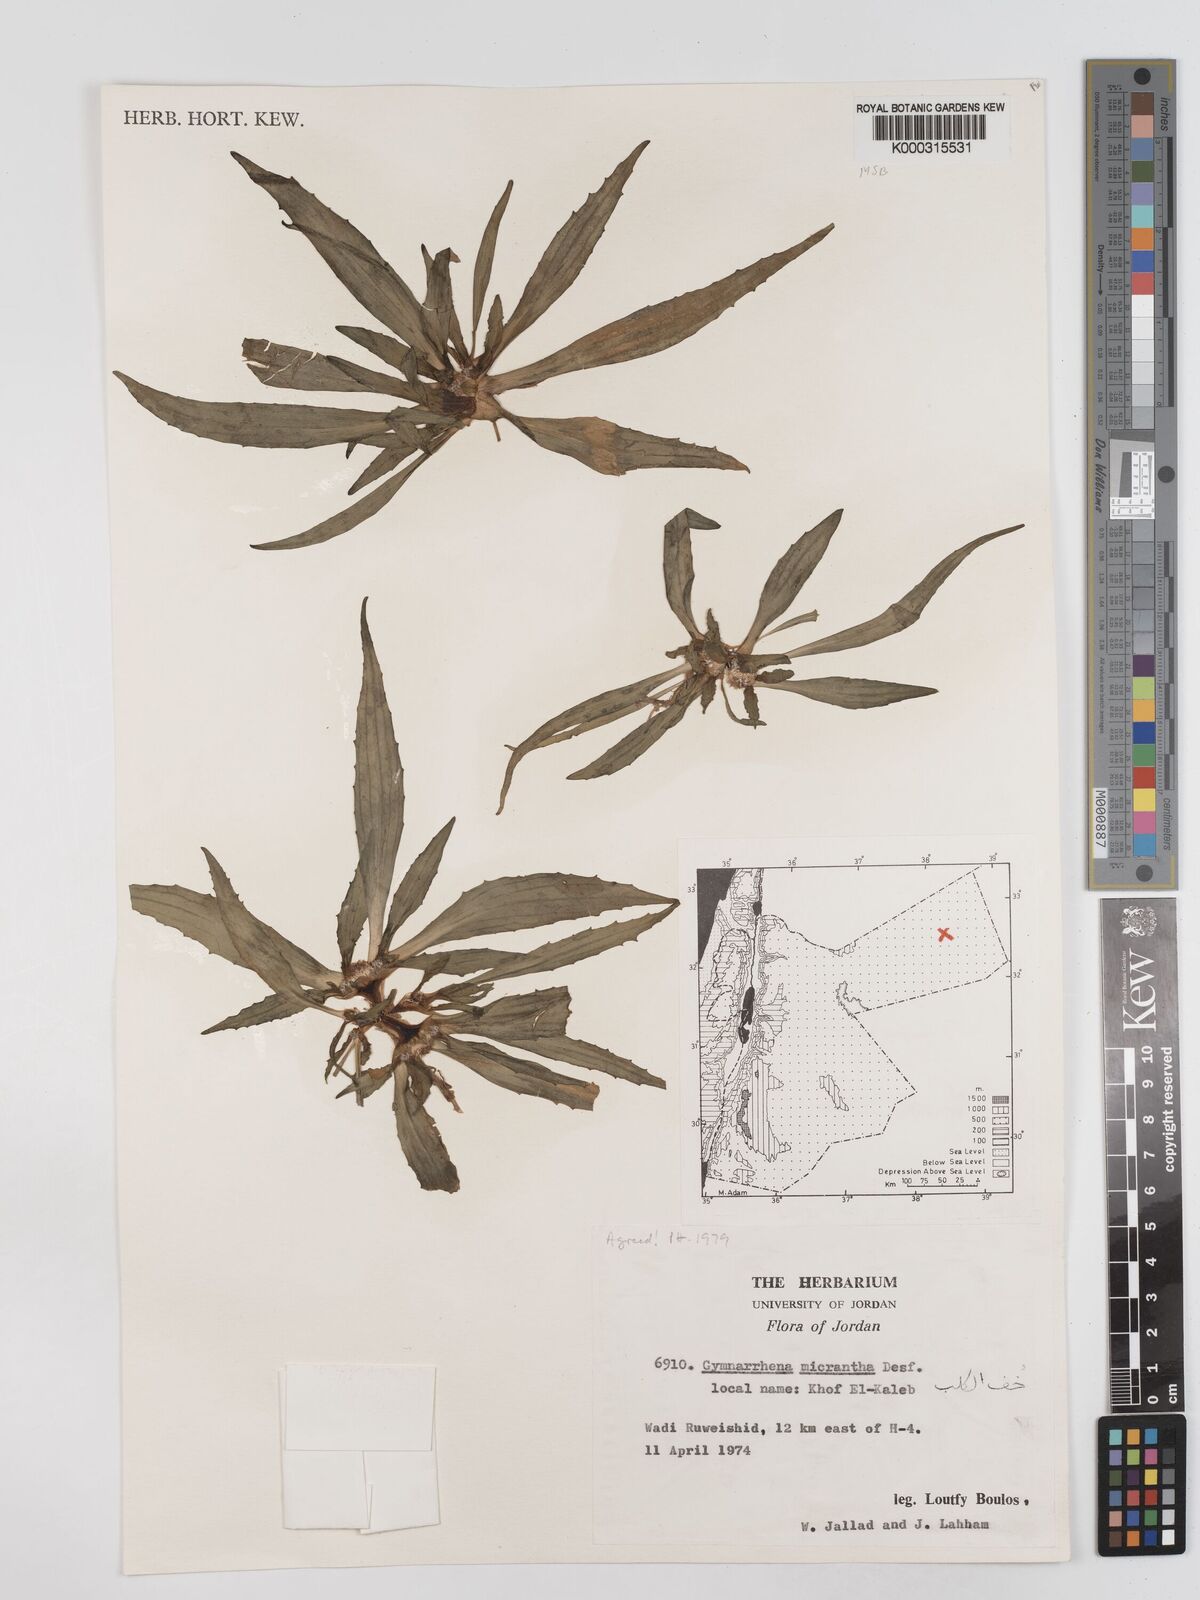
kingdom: Plantae
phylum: Tracheophyta
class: Magnoliopsida
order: Asterales
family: Asteraceae
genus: Gymnarrhena
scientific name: Gymnarrhena micrantha
